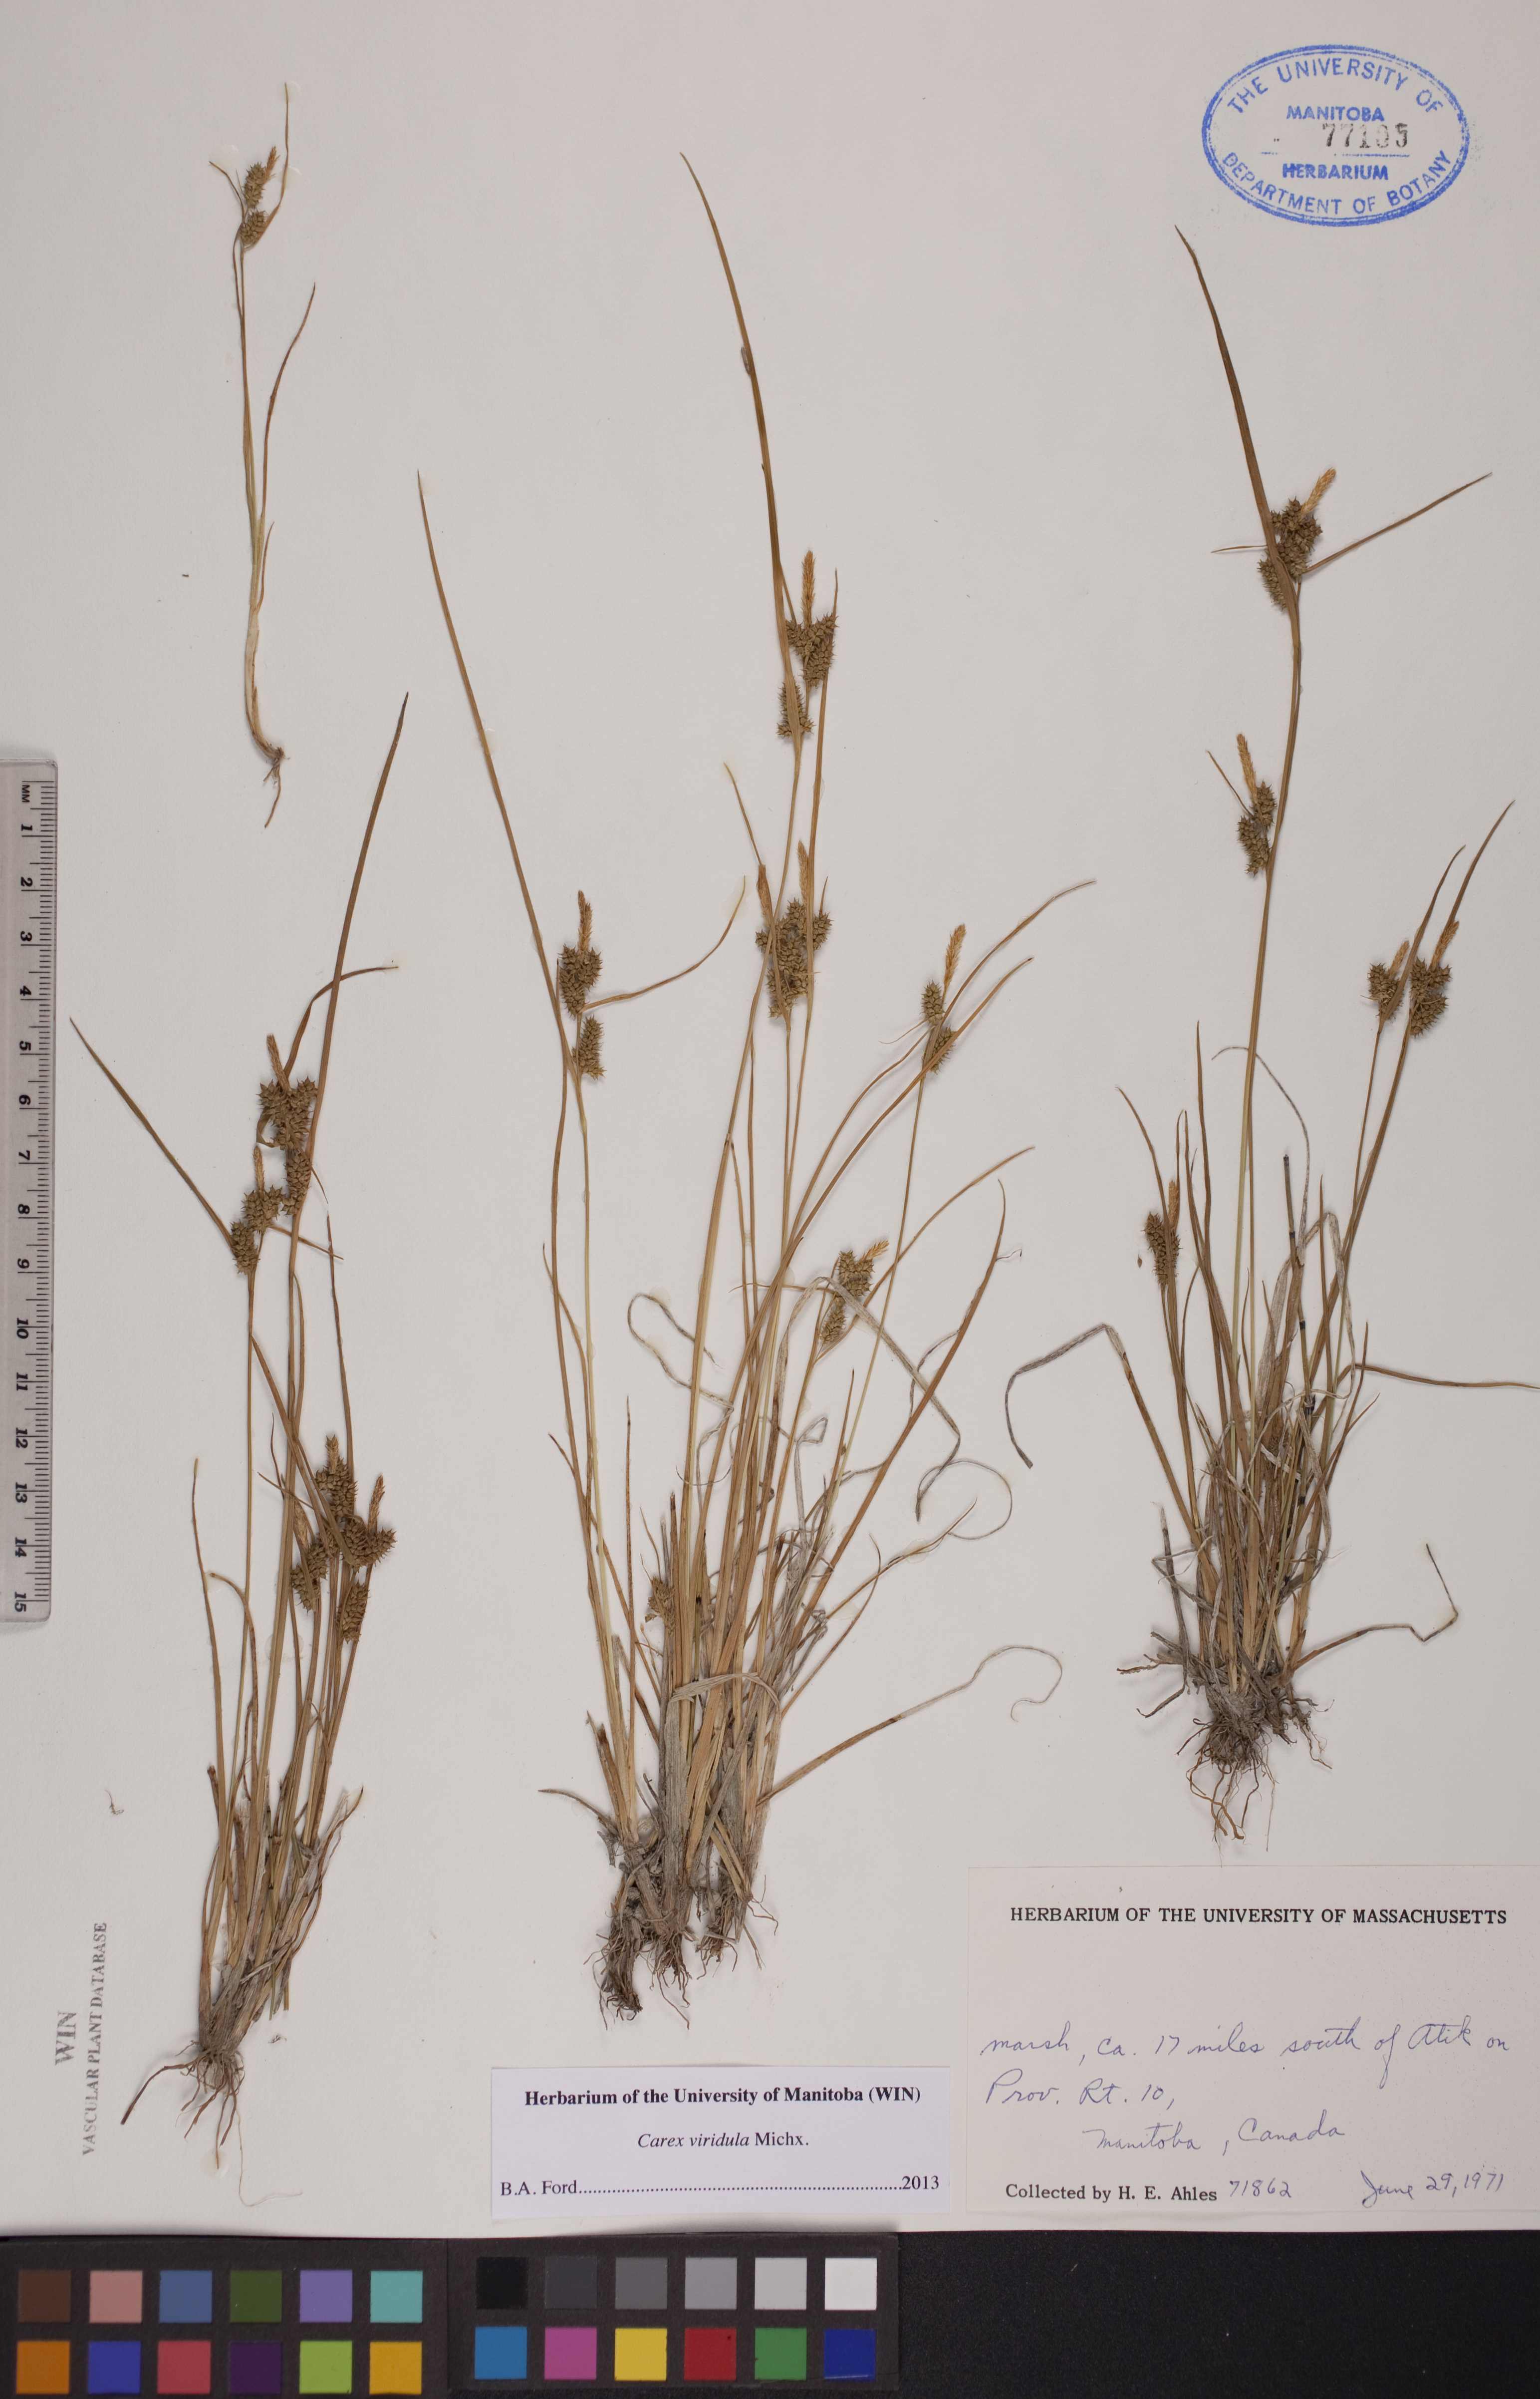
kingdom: Plantae
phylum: Tracheophyta
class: Liliopsida
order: Poales
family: Cyperaceae
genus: Carex
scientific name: Carex oederi
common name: Common & small-fruited yellow-sedge
